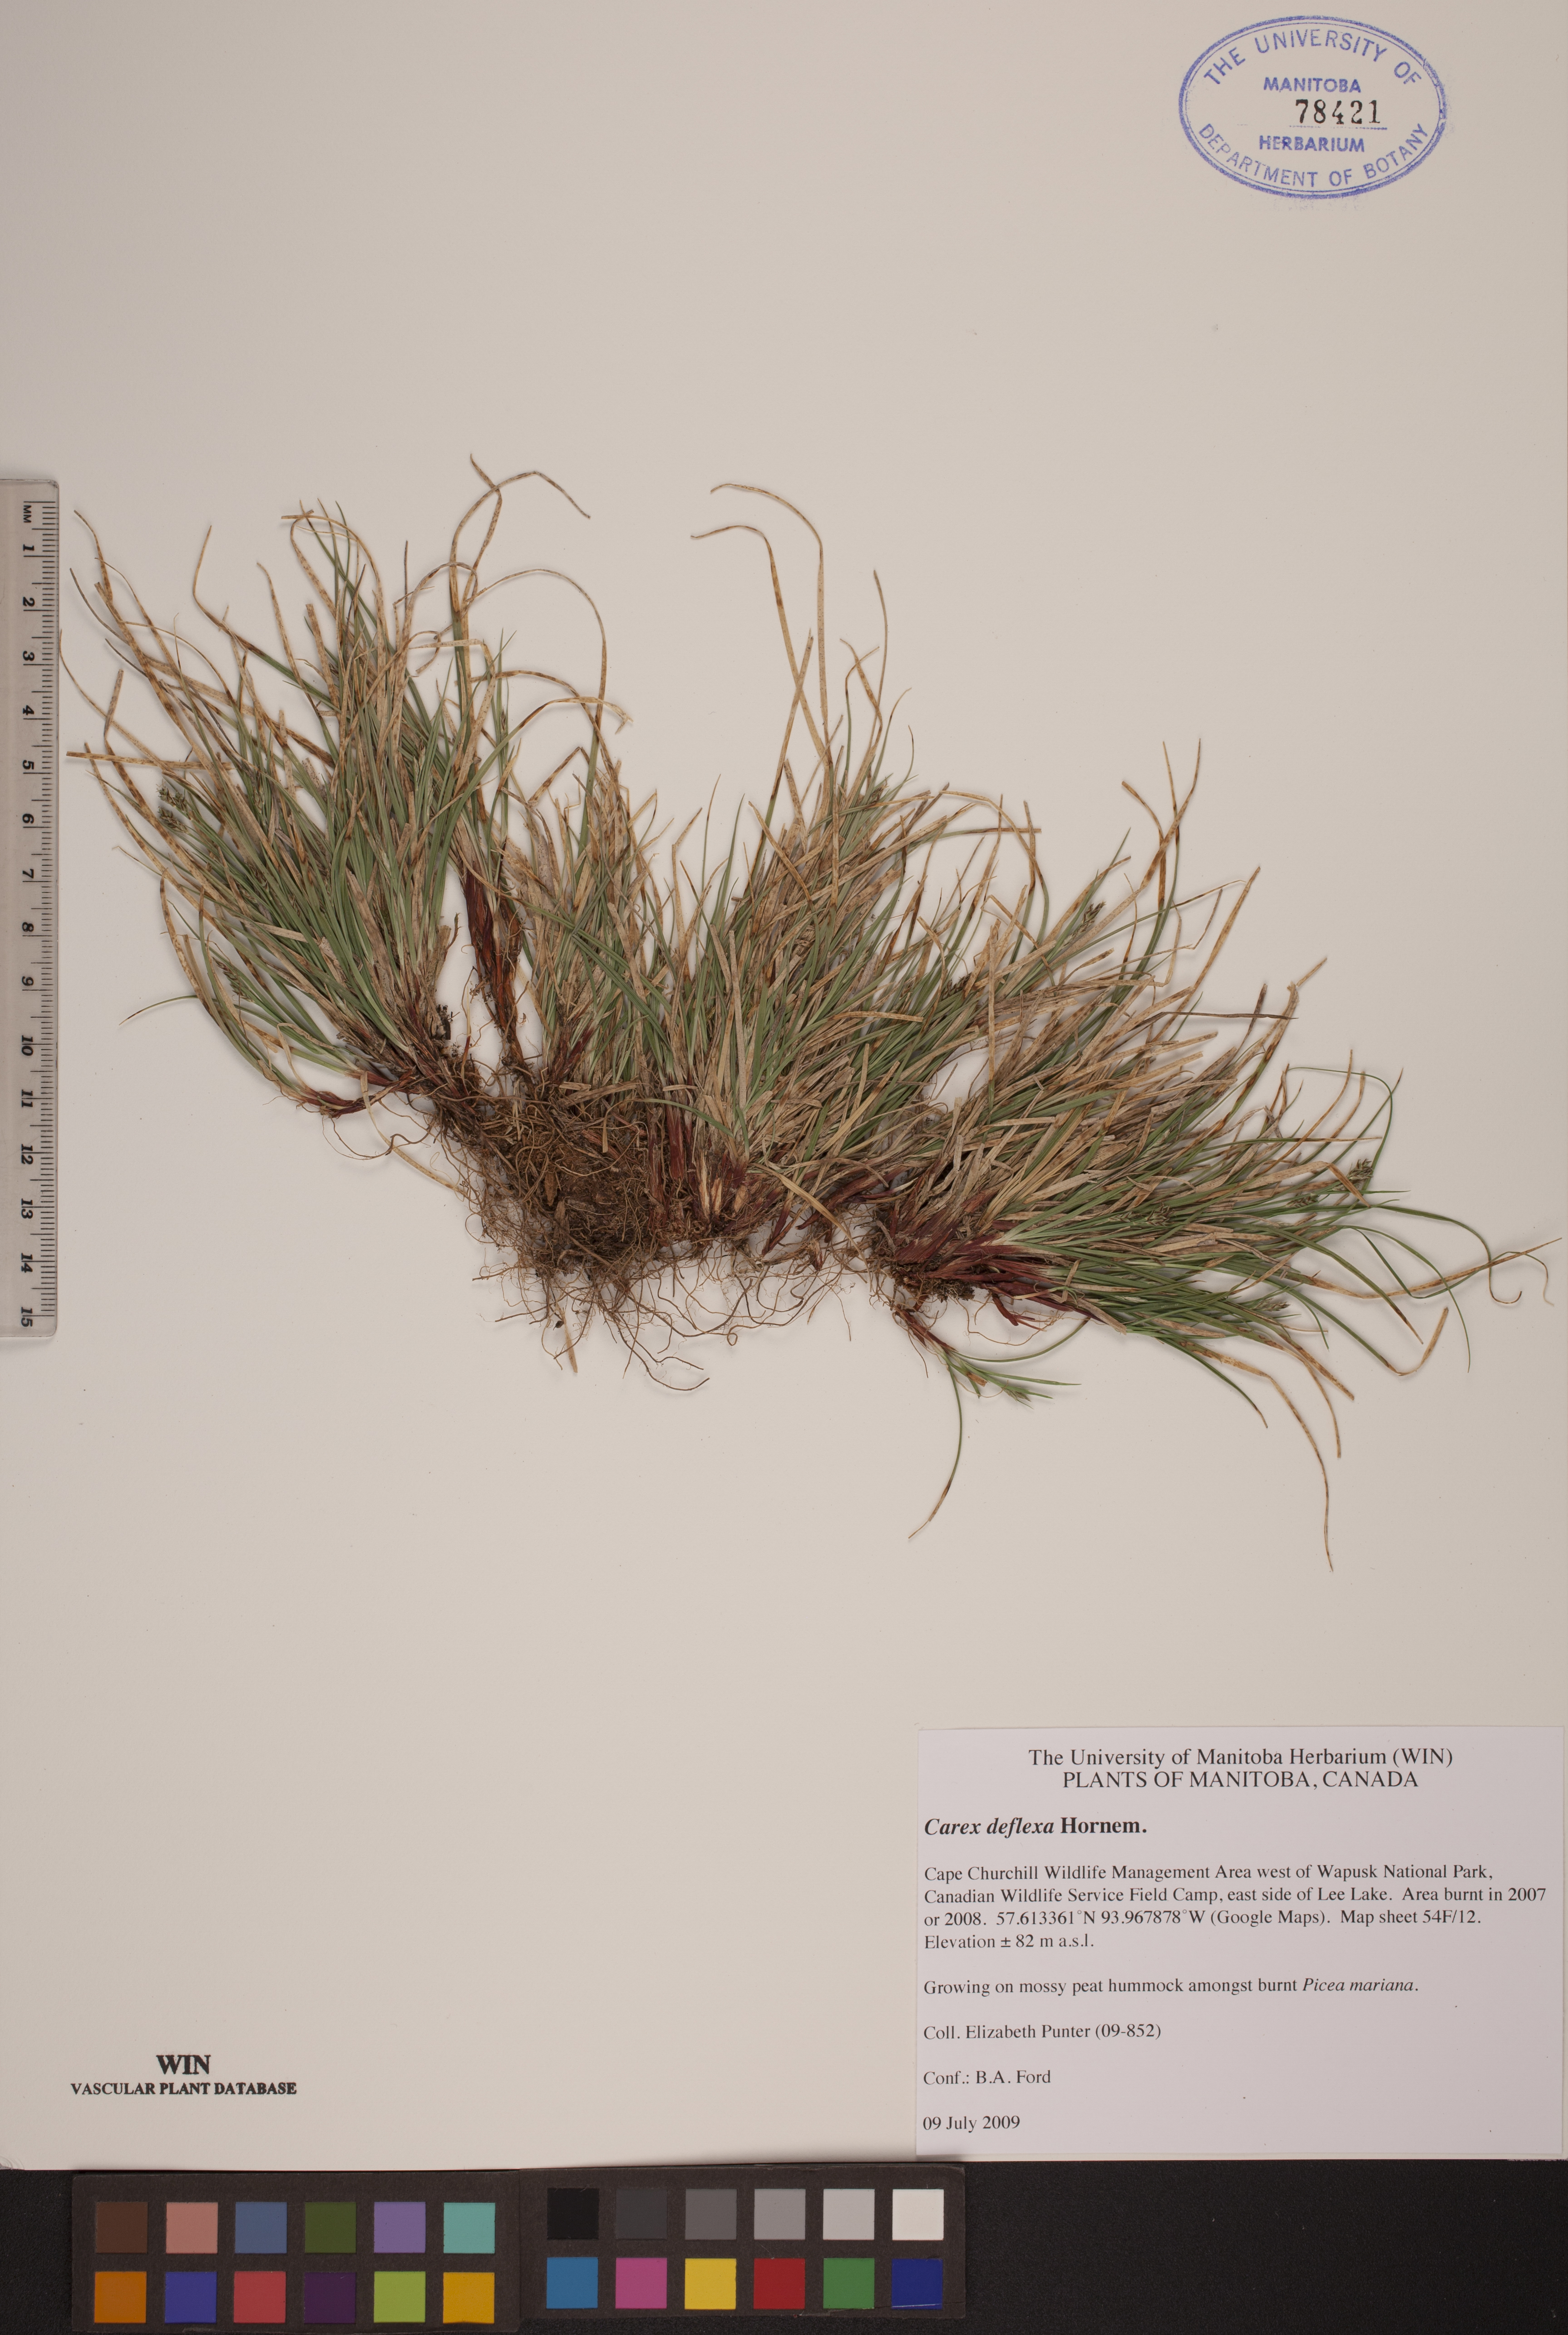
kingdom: Plantae
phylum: Tracheophyta
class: Liliopsida
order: Poales
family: Cyperaceae
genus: Carex
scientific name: Carex deflexa
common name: Bent northern sedge
